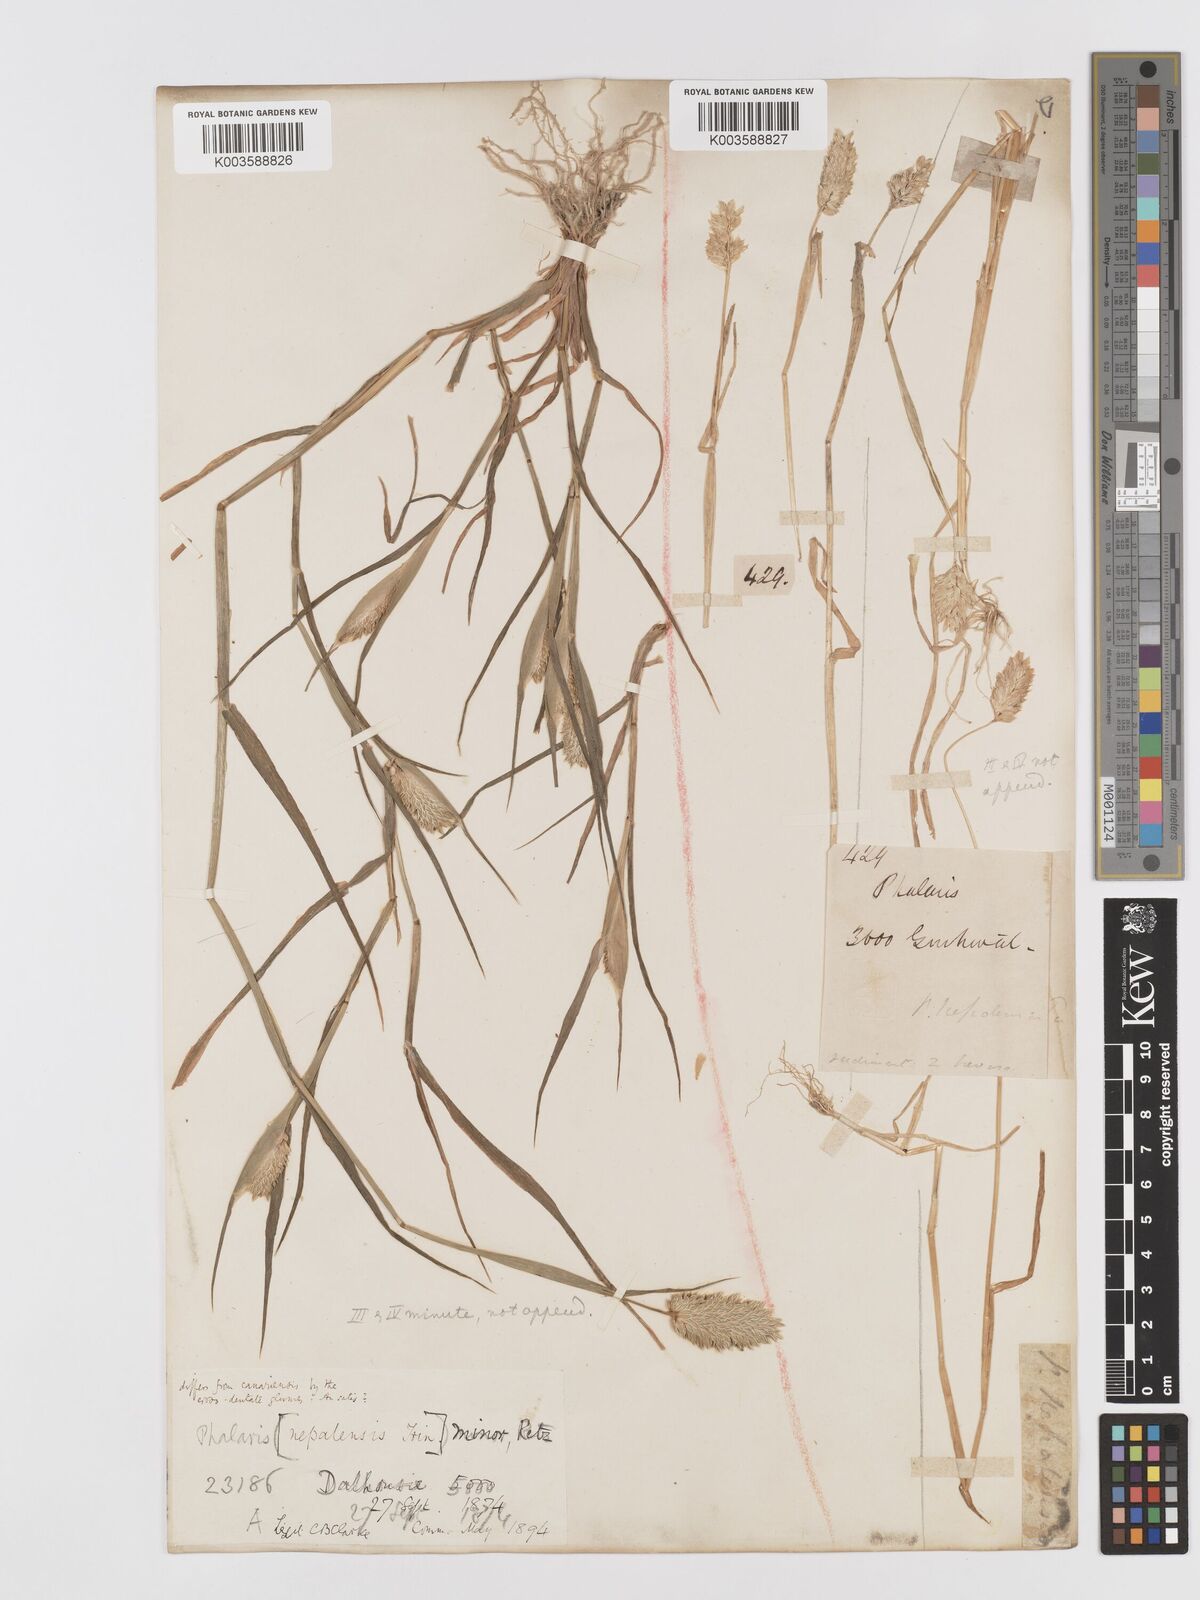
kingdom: Plantae
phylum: Tracheophyta
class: Liliopsida
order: Poales
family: Poaceae
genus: Phalaris
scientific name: Phalaris minor
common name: Littleseed canarygrass
